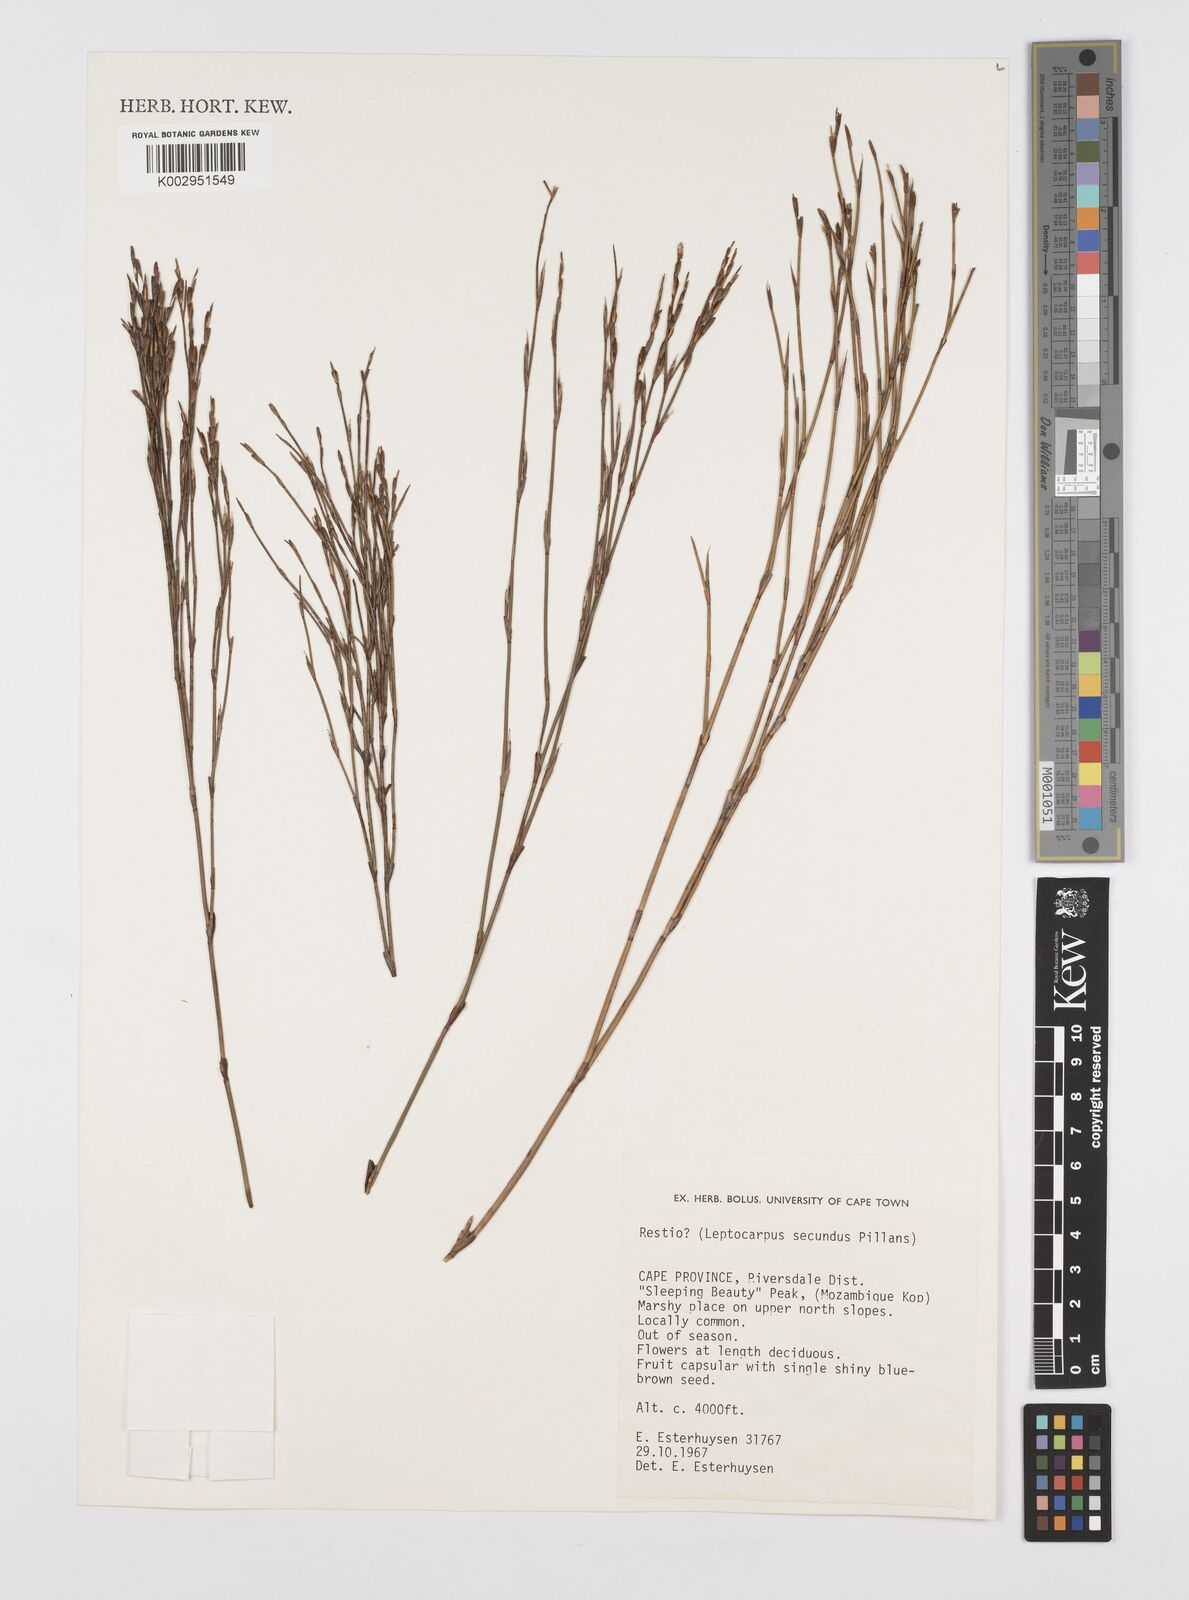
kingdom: Plantae
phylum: Tracheophyta
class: Liliopsida
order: Poales
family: Restionaceae
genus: Restio
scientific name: Restio secundus
